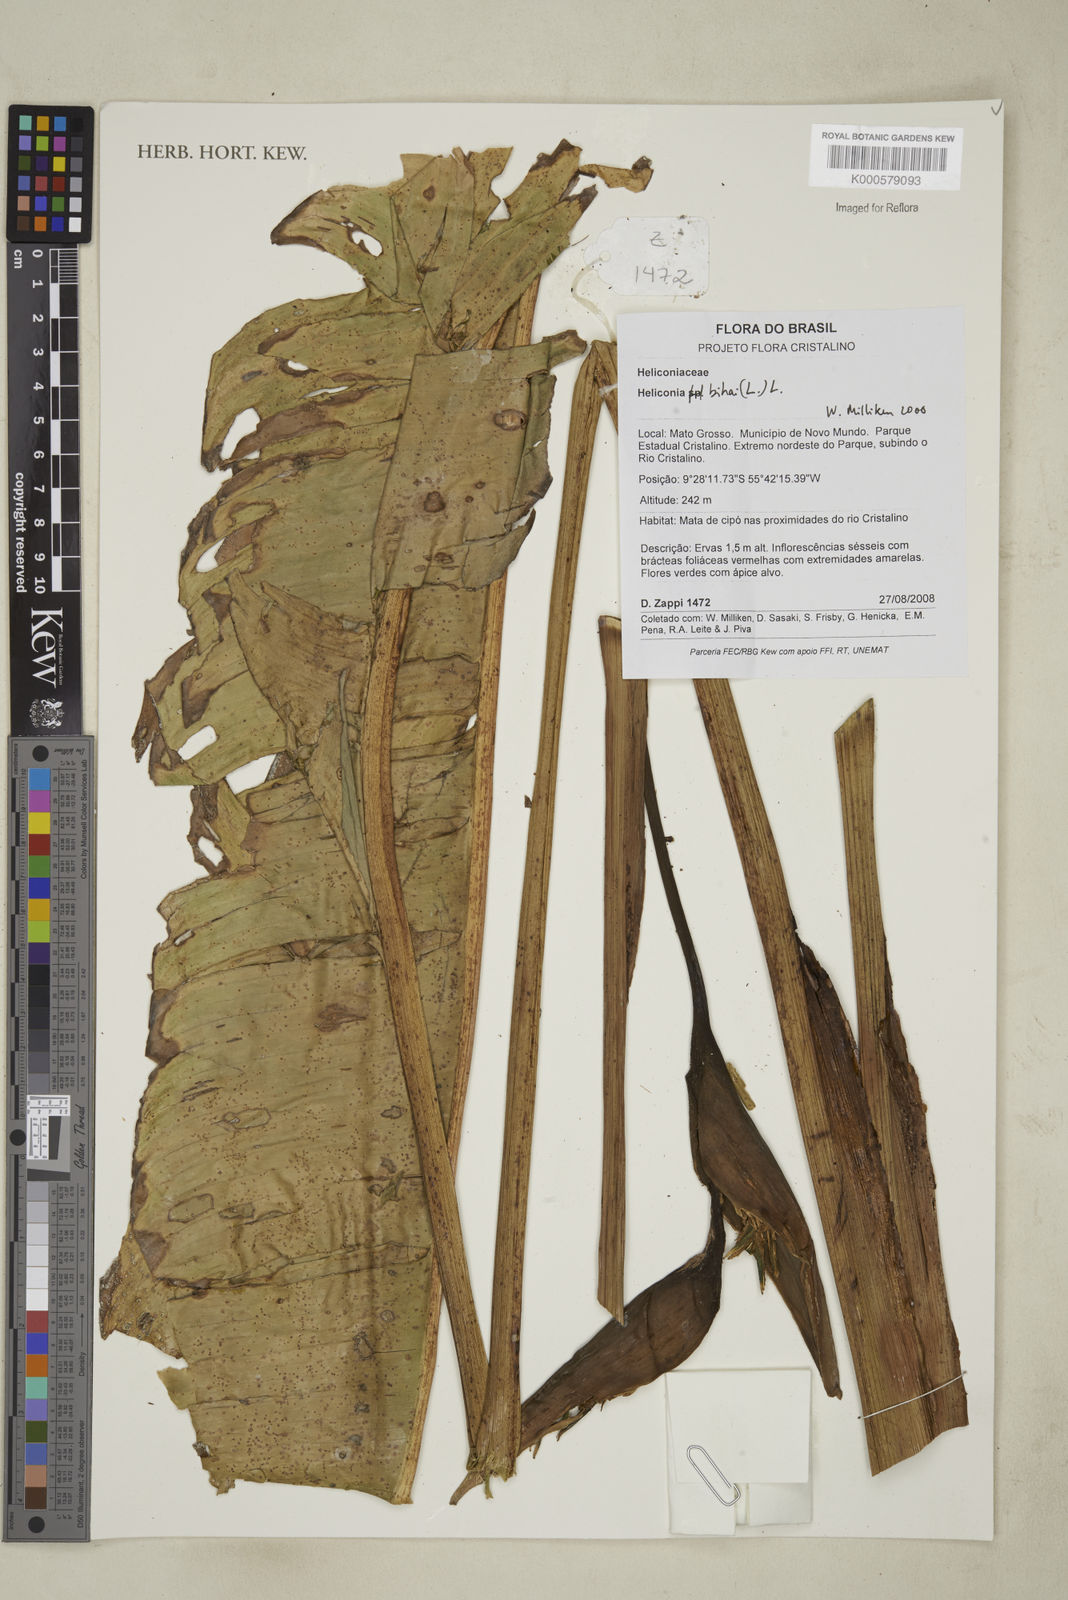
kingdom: Plantae
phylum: Tracheophyta
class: Liliopsida
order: Zingiberales
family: Heliconiaceae
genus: Heliconia
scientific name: Heliconia bihai
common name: Macaw flower
